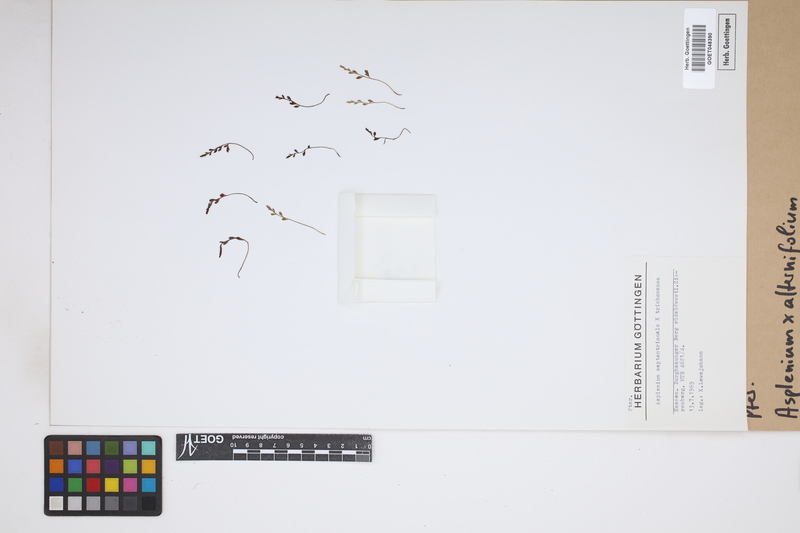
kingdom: Plantae
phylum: Tracheophyta
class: Polypodiopsida
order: Polypodiales
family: Aspleniaceae
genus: Asplenium
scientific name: Asplenium alternifolium
